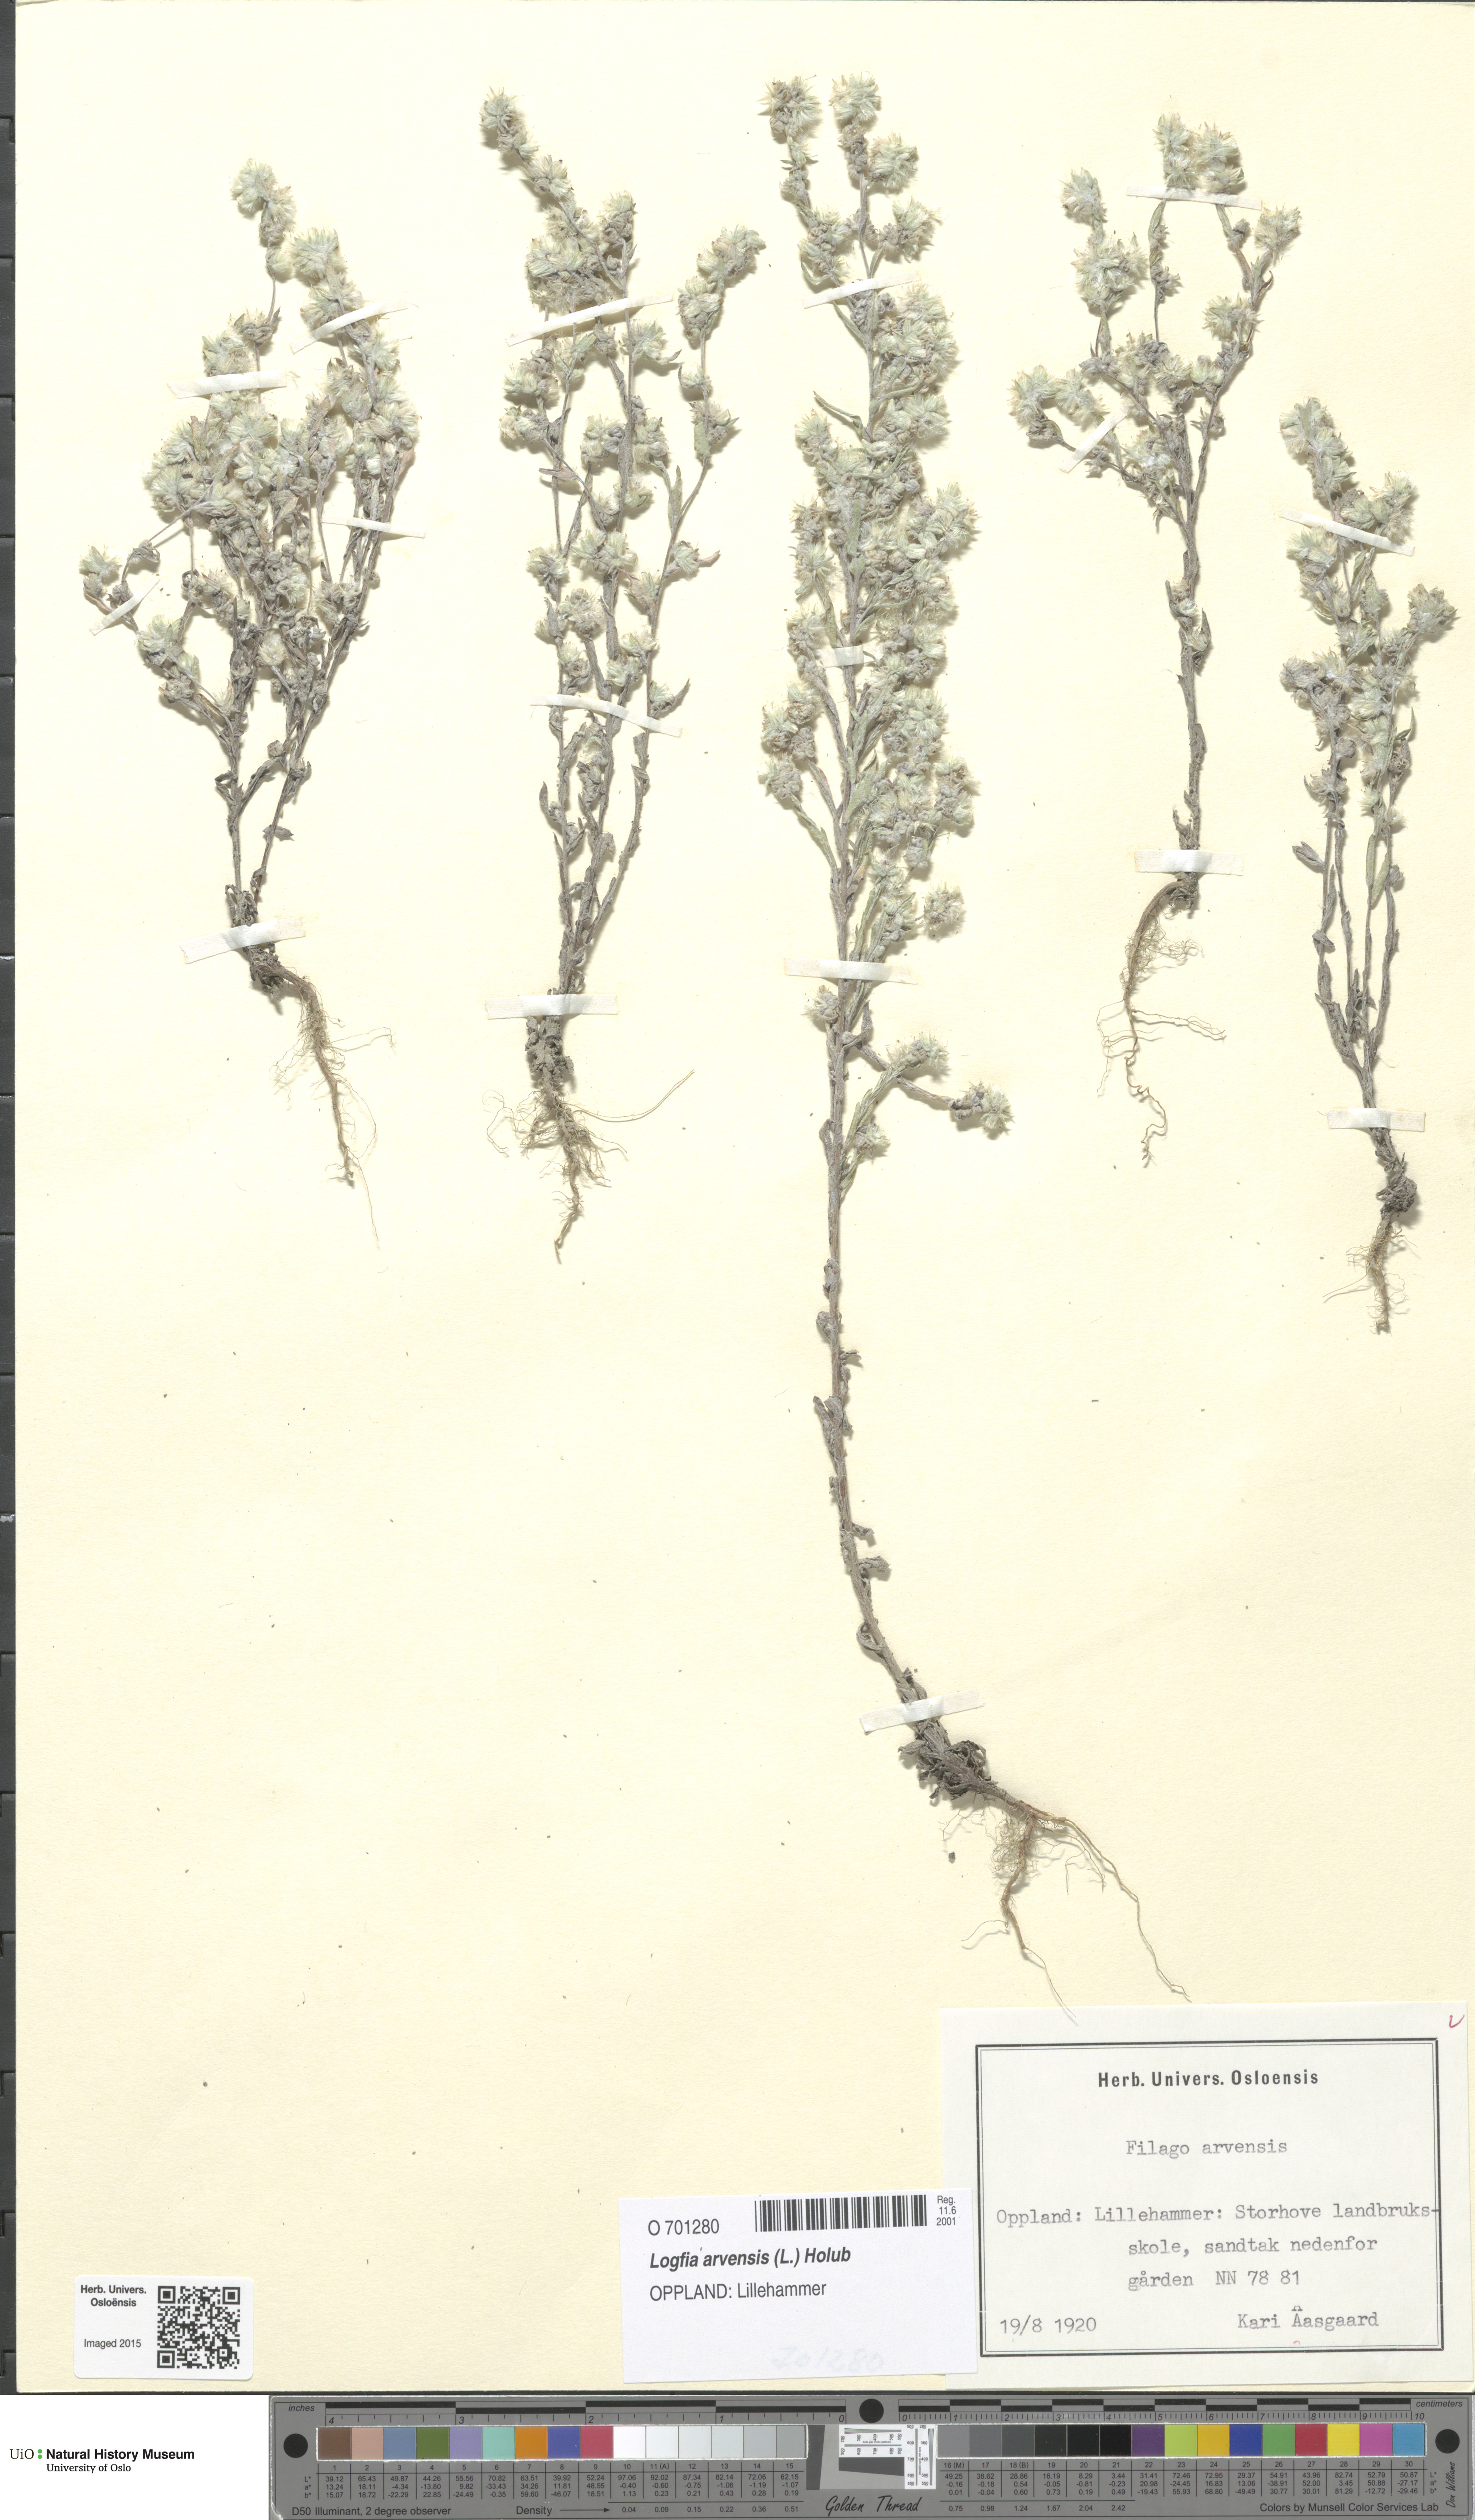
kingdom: Plantae
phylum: Tracheophyta
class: Magnoliopsida
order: Asterales
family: Asteraceae
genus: Filago
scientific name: Filago arvensis
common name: Field cudweed
